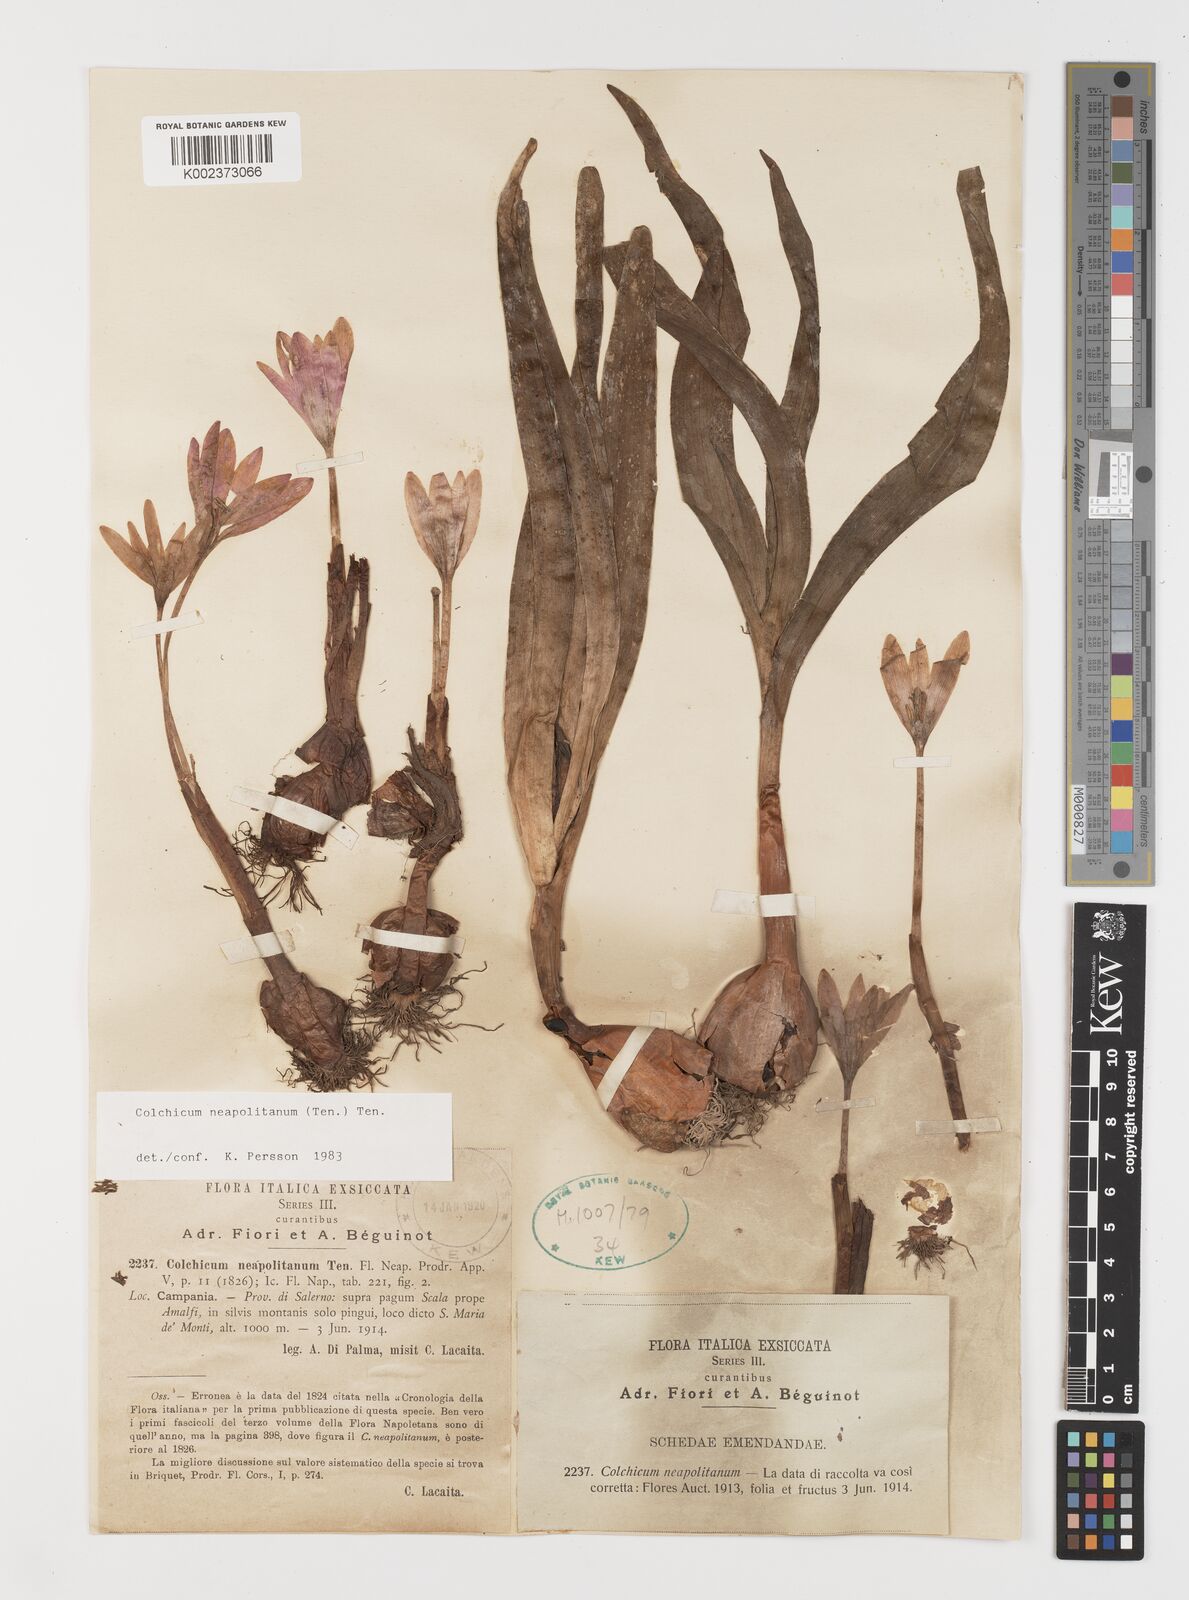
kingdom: Plantae
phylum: Tracheophyta
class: Liliopsida
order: Liliales
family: Colchicaceae
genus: Colchicum
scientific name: Colchicum neapolitanum
